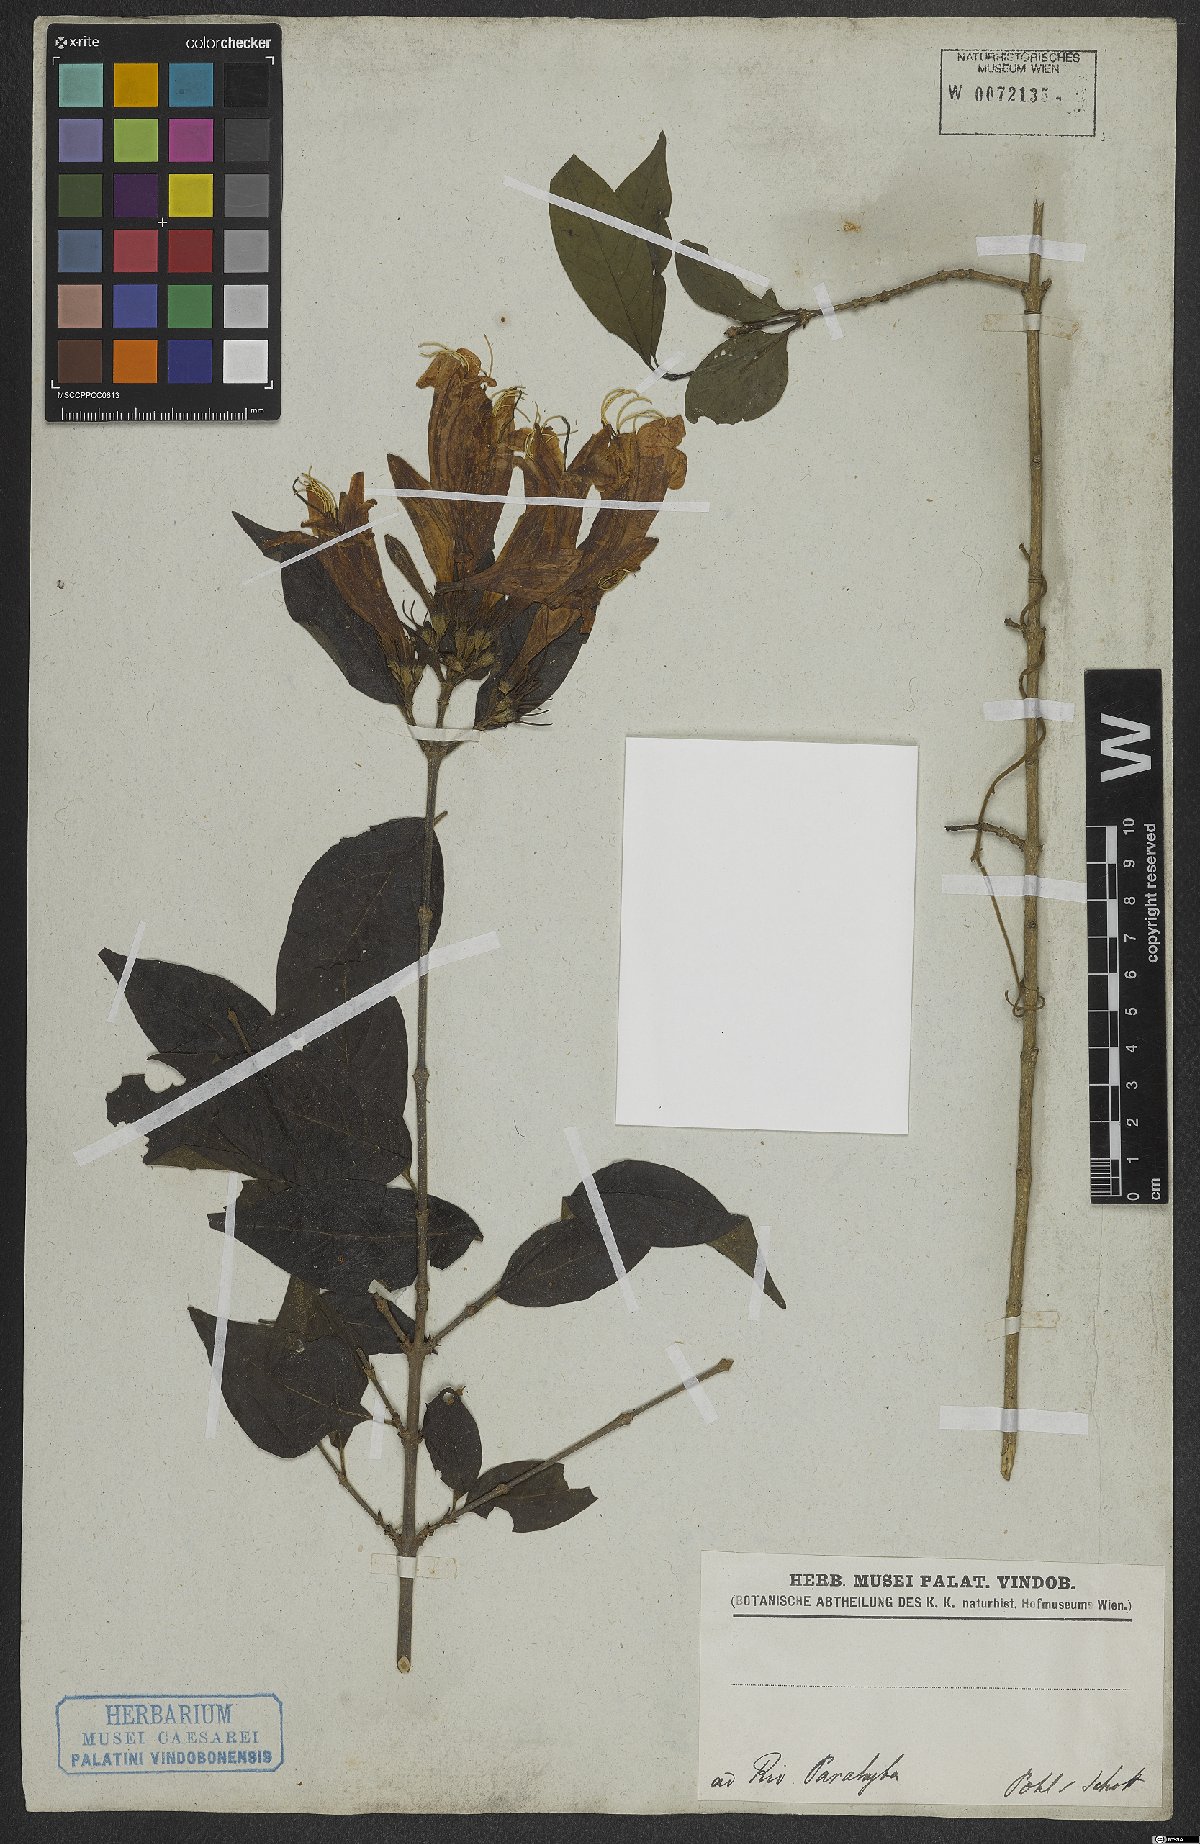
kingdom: Plantae
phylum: Tracheophyta
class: Magnoliopsida
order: Gentianales
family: Rubiaceae
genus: Coutarea
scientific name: Coutarea
